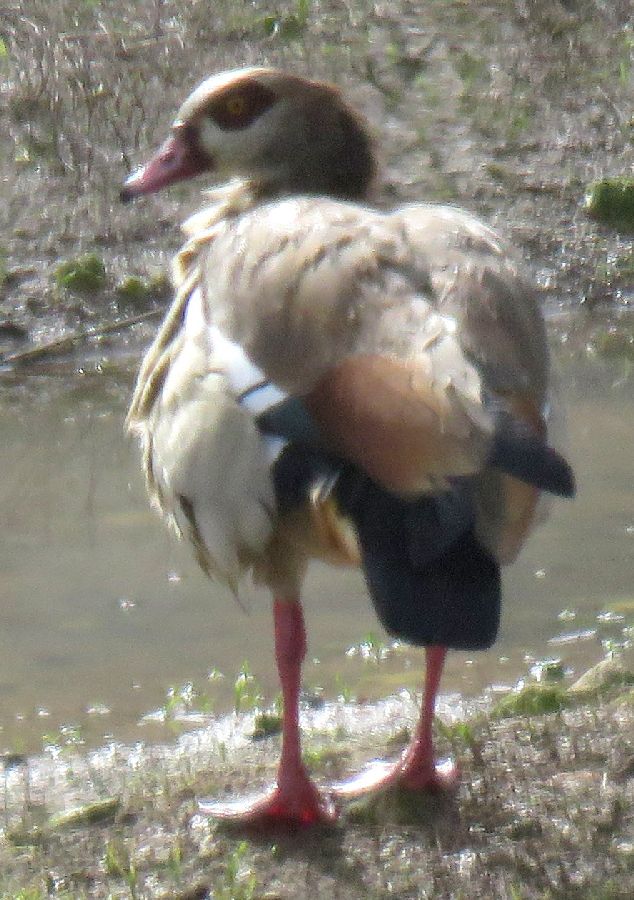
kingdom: Animalia
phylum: Chordata
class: Aves
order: Anseriformes
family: Anatidae
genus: Alopochen
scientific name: Alopochen aegyptiaca
